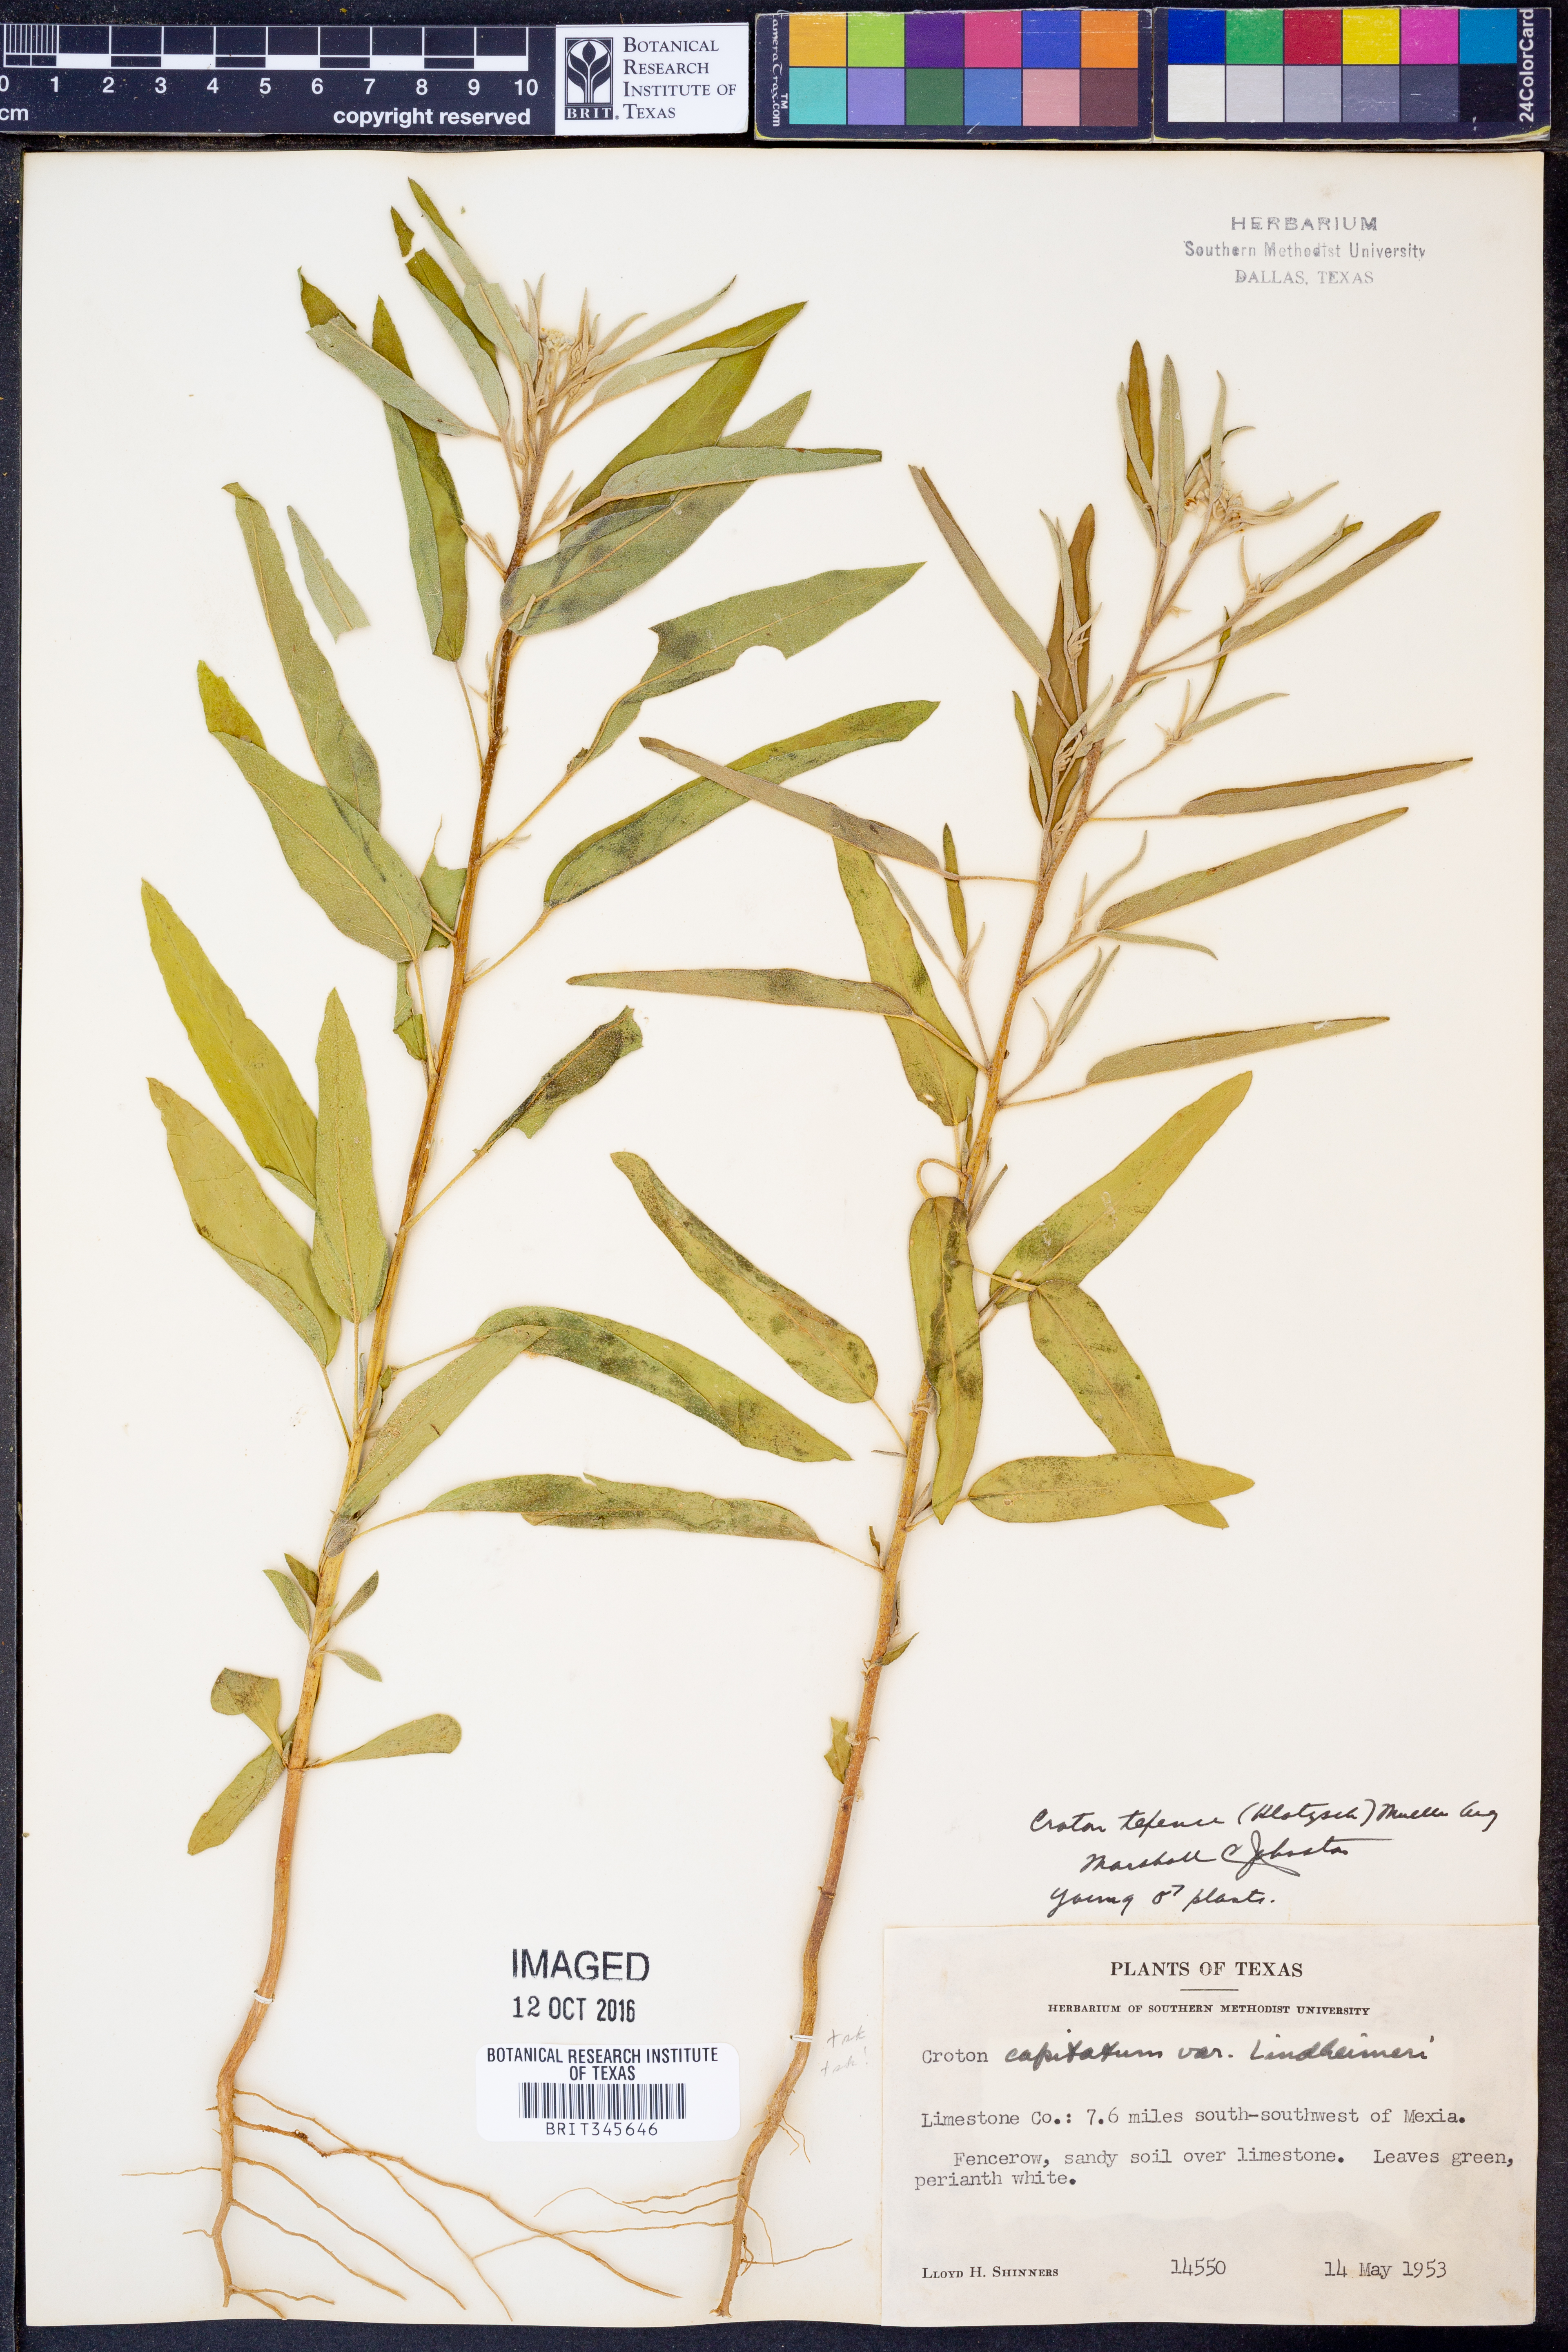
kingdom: Plantae
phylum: Tracheophyta
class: Magnoliopsida
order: Malpighiales
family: Euphorbiaceae
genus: Croton
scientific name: Croton texensis
